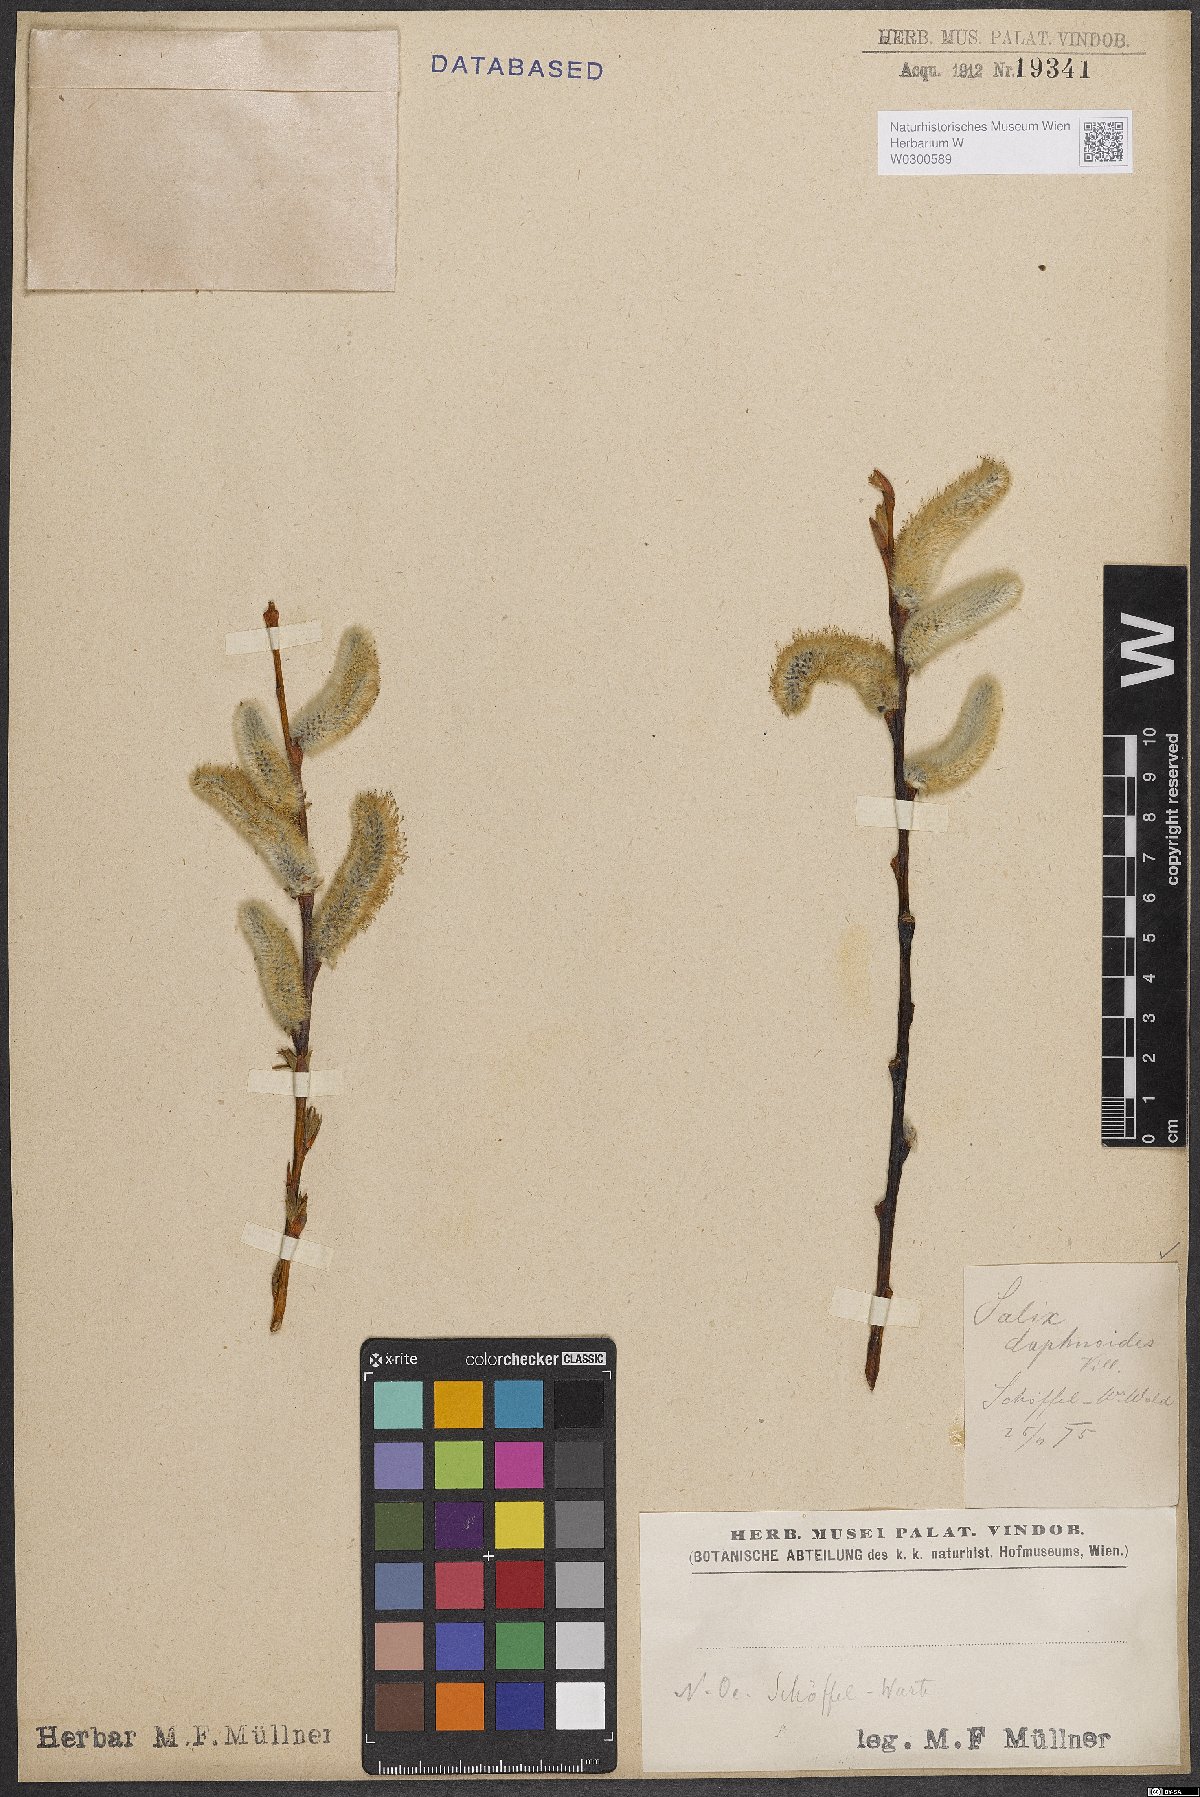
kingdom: Plantae
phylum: Tracheophyta
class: Magnoliopsida
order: Malpighiales
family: Salicaceae
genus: Salix
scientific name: Salix daphnoides
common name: European violet-willow
